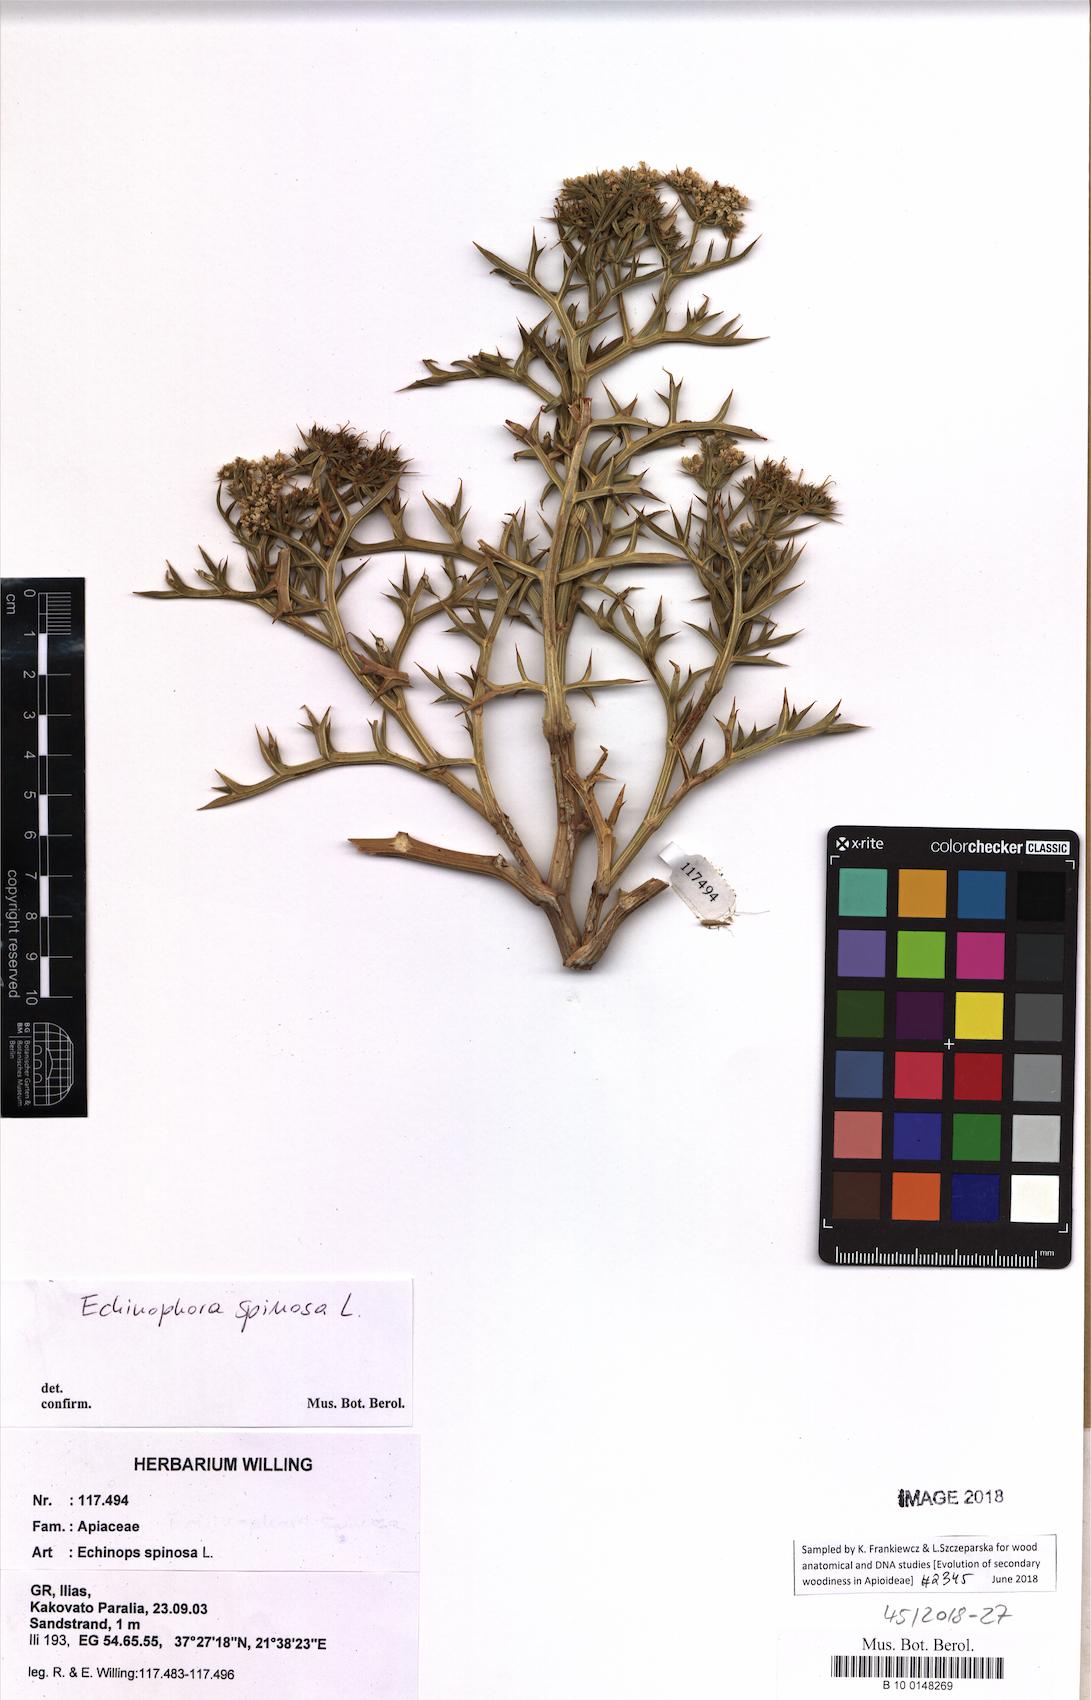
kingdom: Plantae
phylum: Tracheophyta
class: Magnoliopsida
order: Apiales
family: Apiaceae
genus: Echinophora
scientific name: Echinophora spinosa
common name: Prickly samphire
